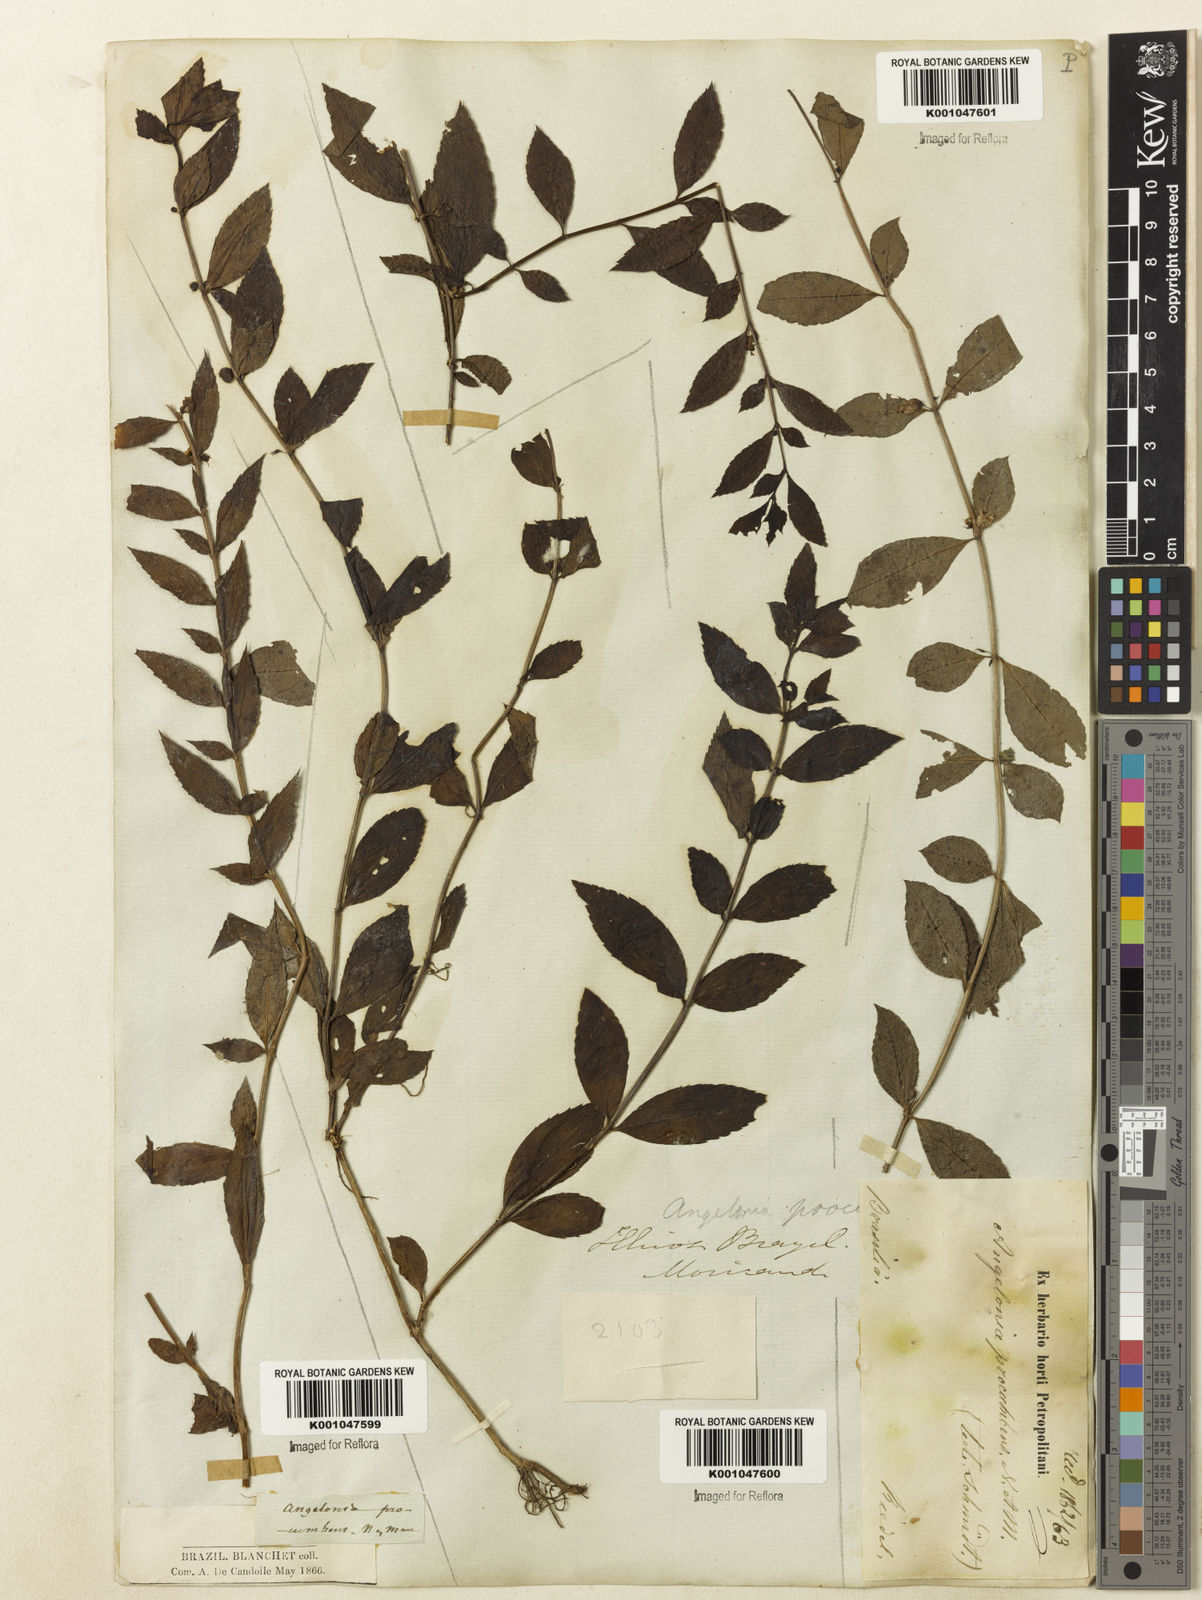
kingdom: Plantae
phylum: Tracheophyta
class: Magnoliopsida
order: Lamiales
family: Plantaginaceae
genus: Angelonia
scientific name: Angelonia procumbens
